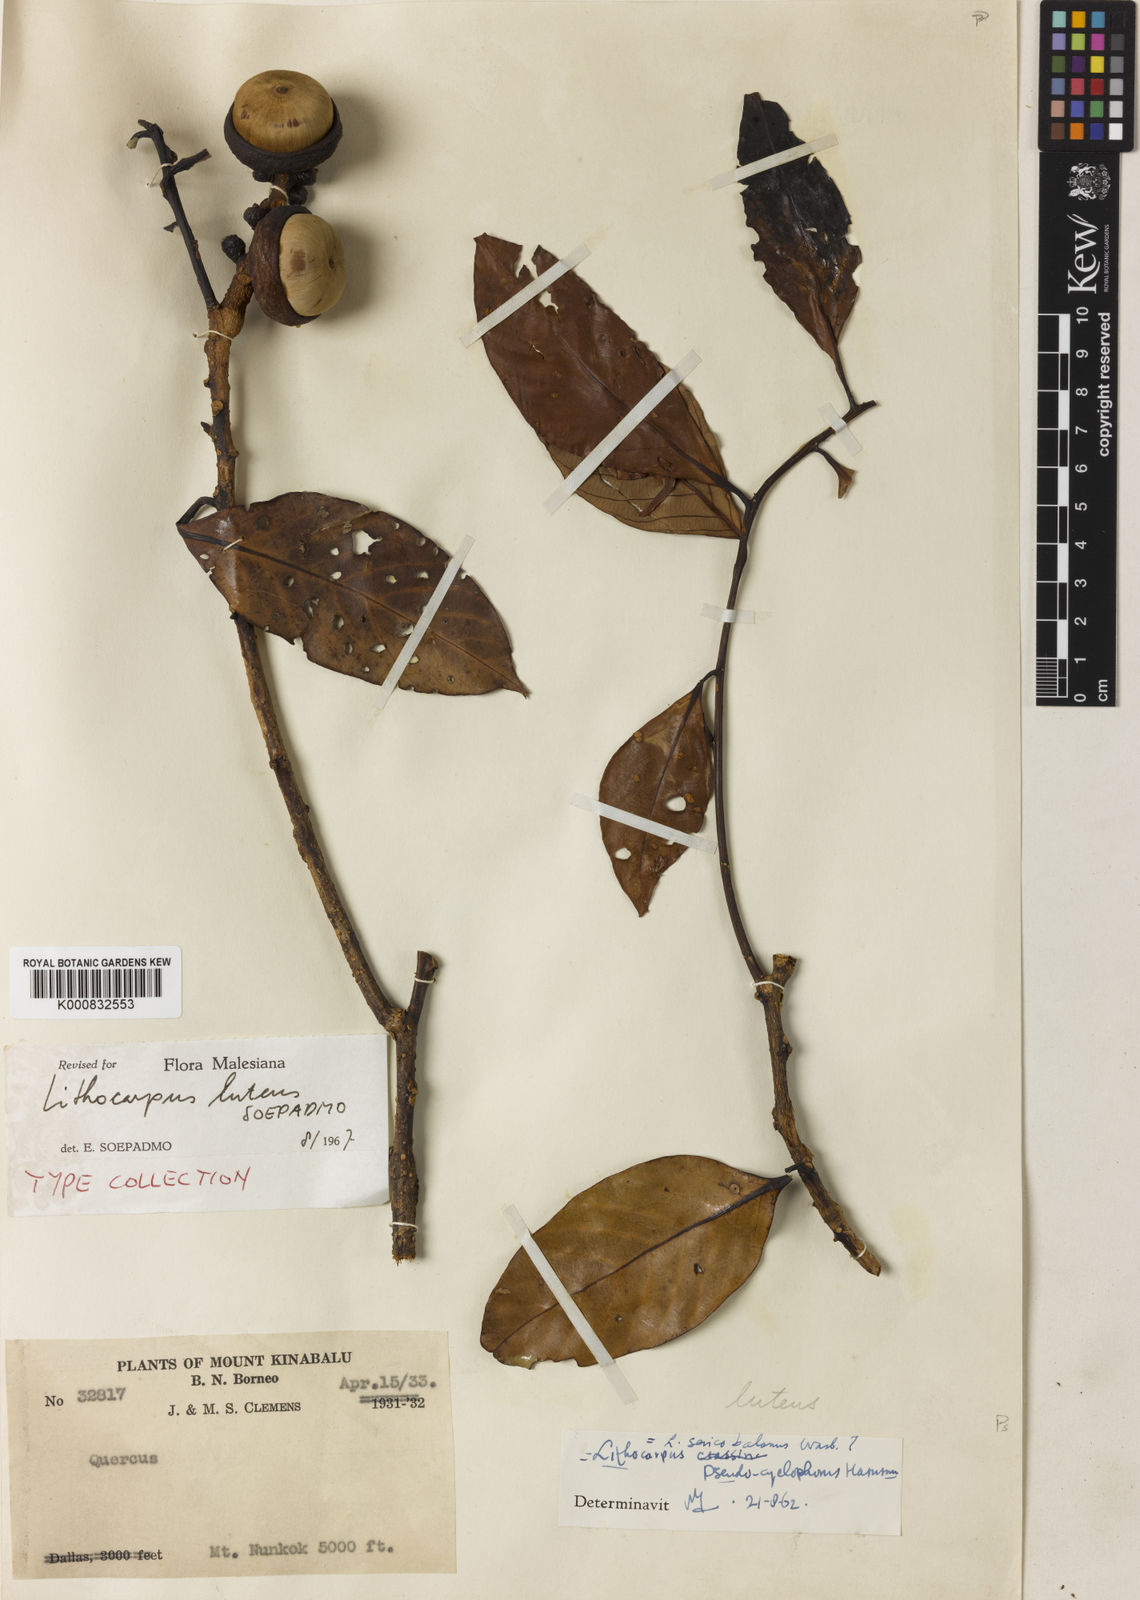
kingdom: Plantae
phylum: Tracheophyta
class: Magnoliopsida
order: Fagales
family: Fagaceae
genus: Lithocarpus
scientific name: Lithocarpus luteus
